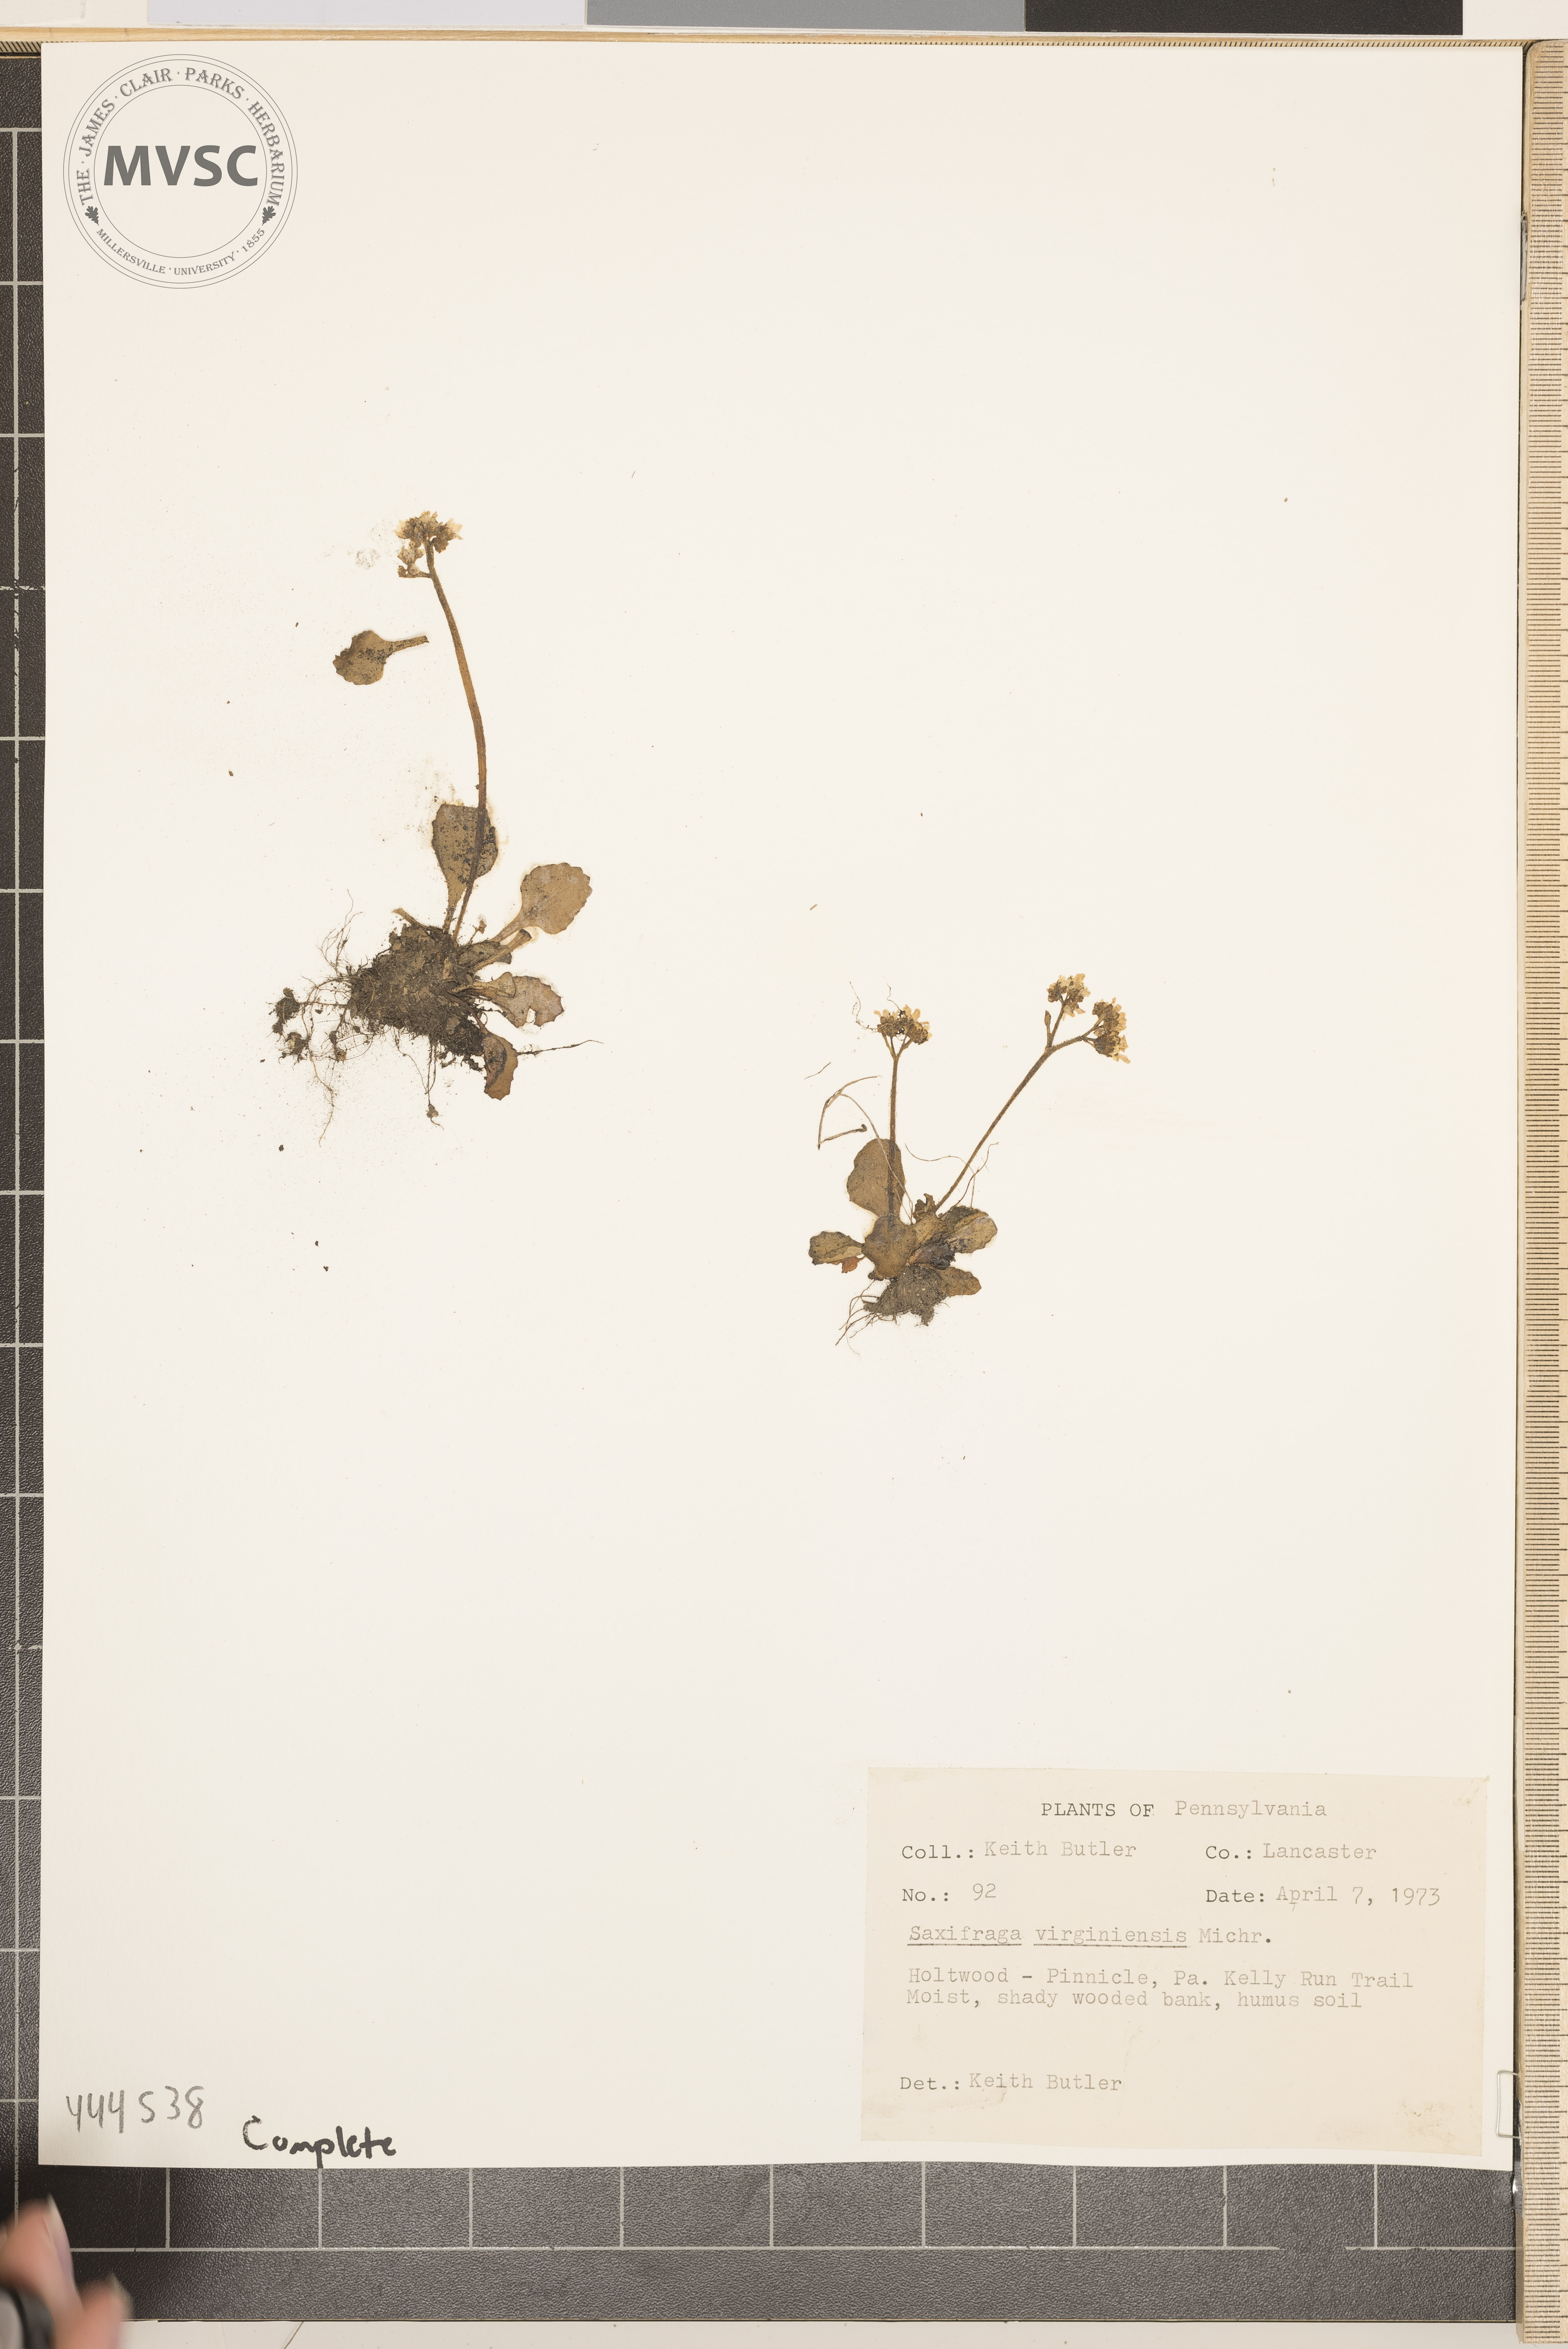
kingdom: Plantae
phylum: Tracheophyta
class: Magnoliopsida
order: Saxifragales
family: Saxifragaceae
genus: Micranthes
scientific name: Micranthes virginiensis
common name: Early saxifrage
